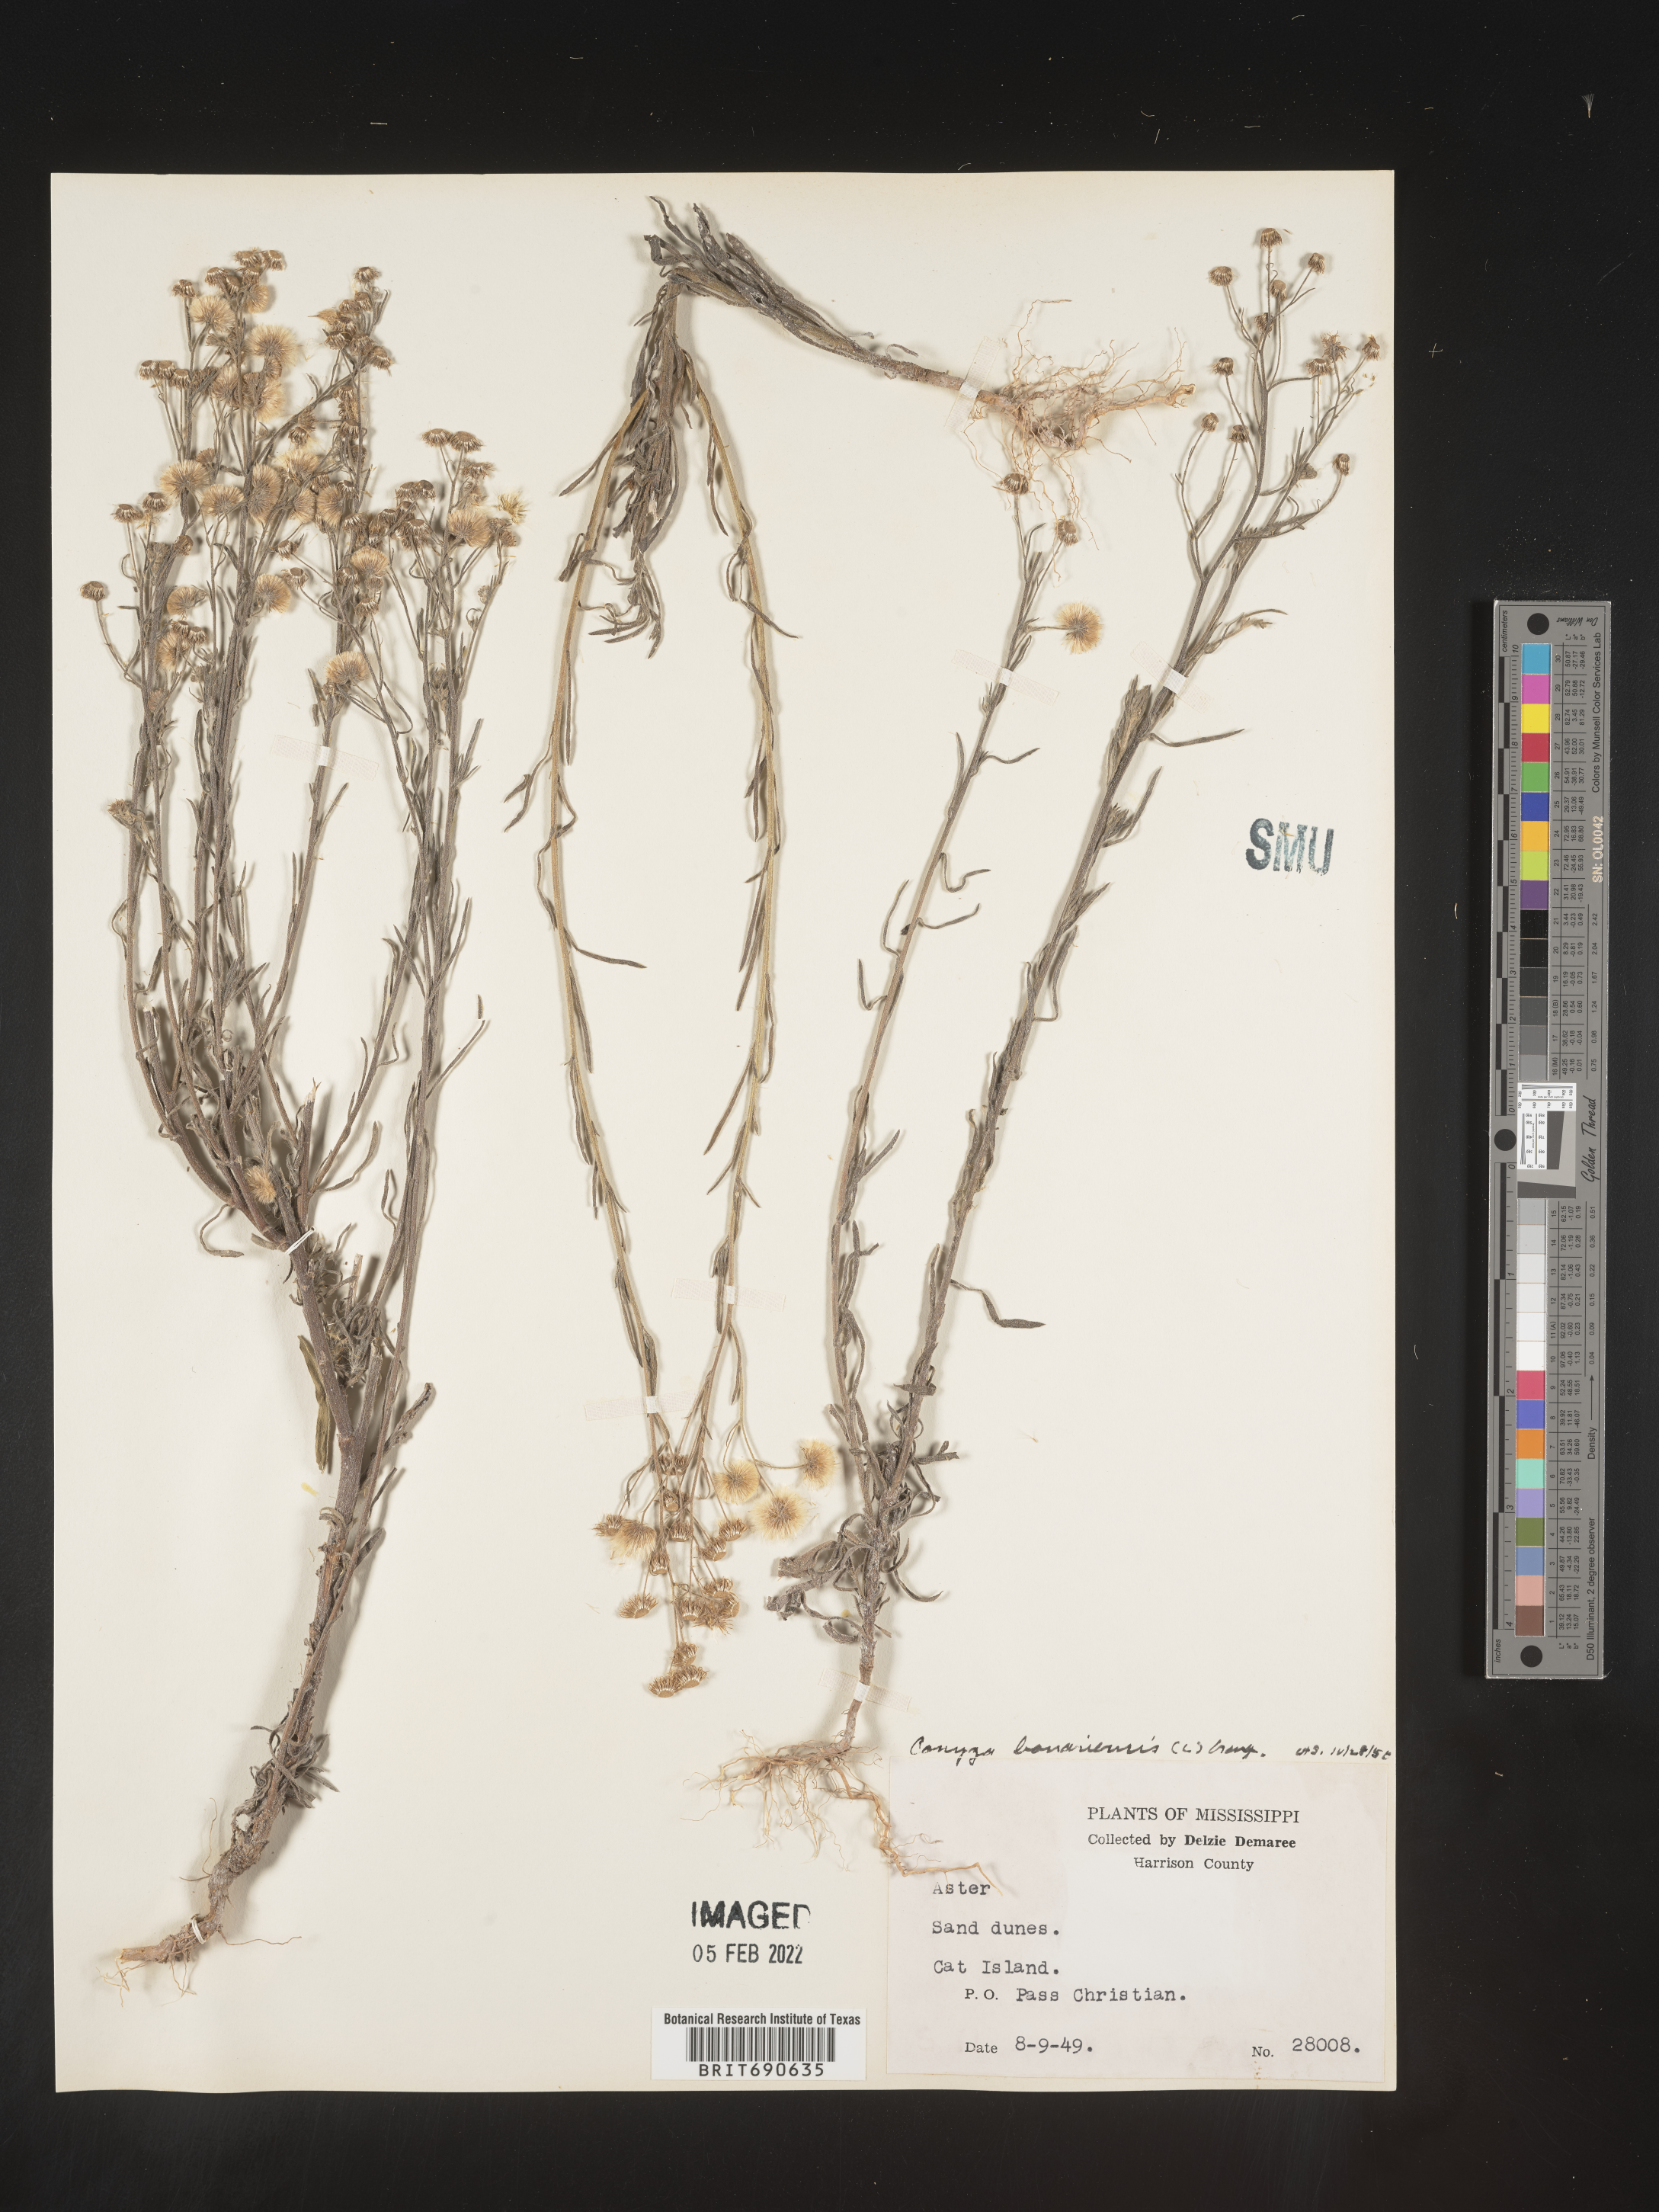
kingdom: Plantae
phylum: Tracheophyta
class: Magnoliopsida
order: Asterales
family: Asteraceae
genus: Erigeron
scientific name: Erigeron bonariensis
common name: Argentine fleabane
